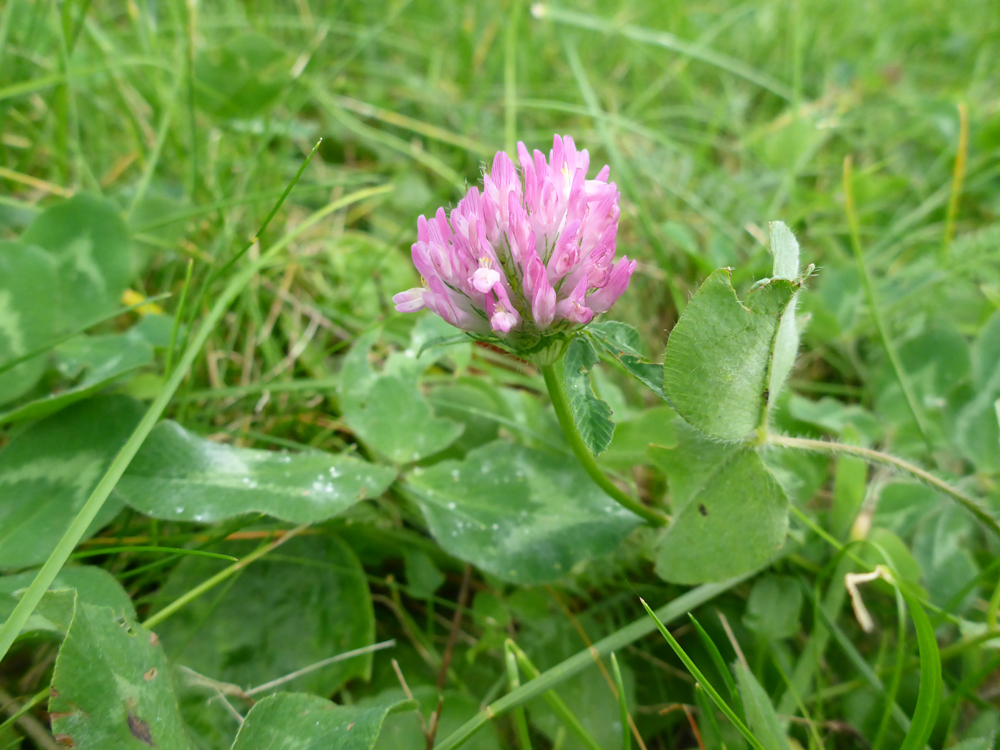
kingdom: Plantae
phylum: Tracheophyta
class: Magnoliopsida
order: Fabales
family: Fabaceae
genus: Trifolium
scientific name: Trifolium pratense
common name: Red clover
